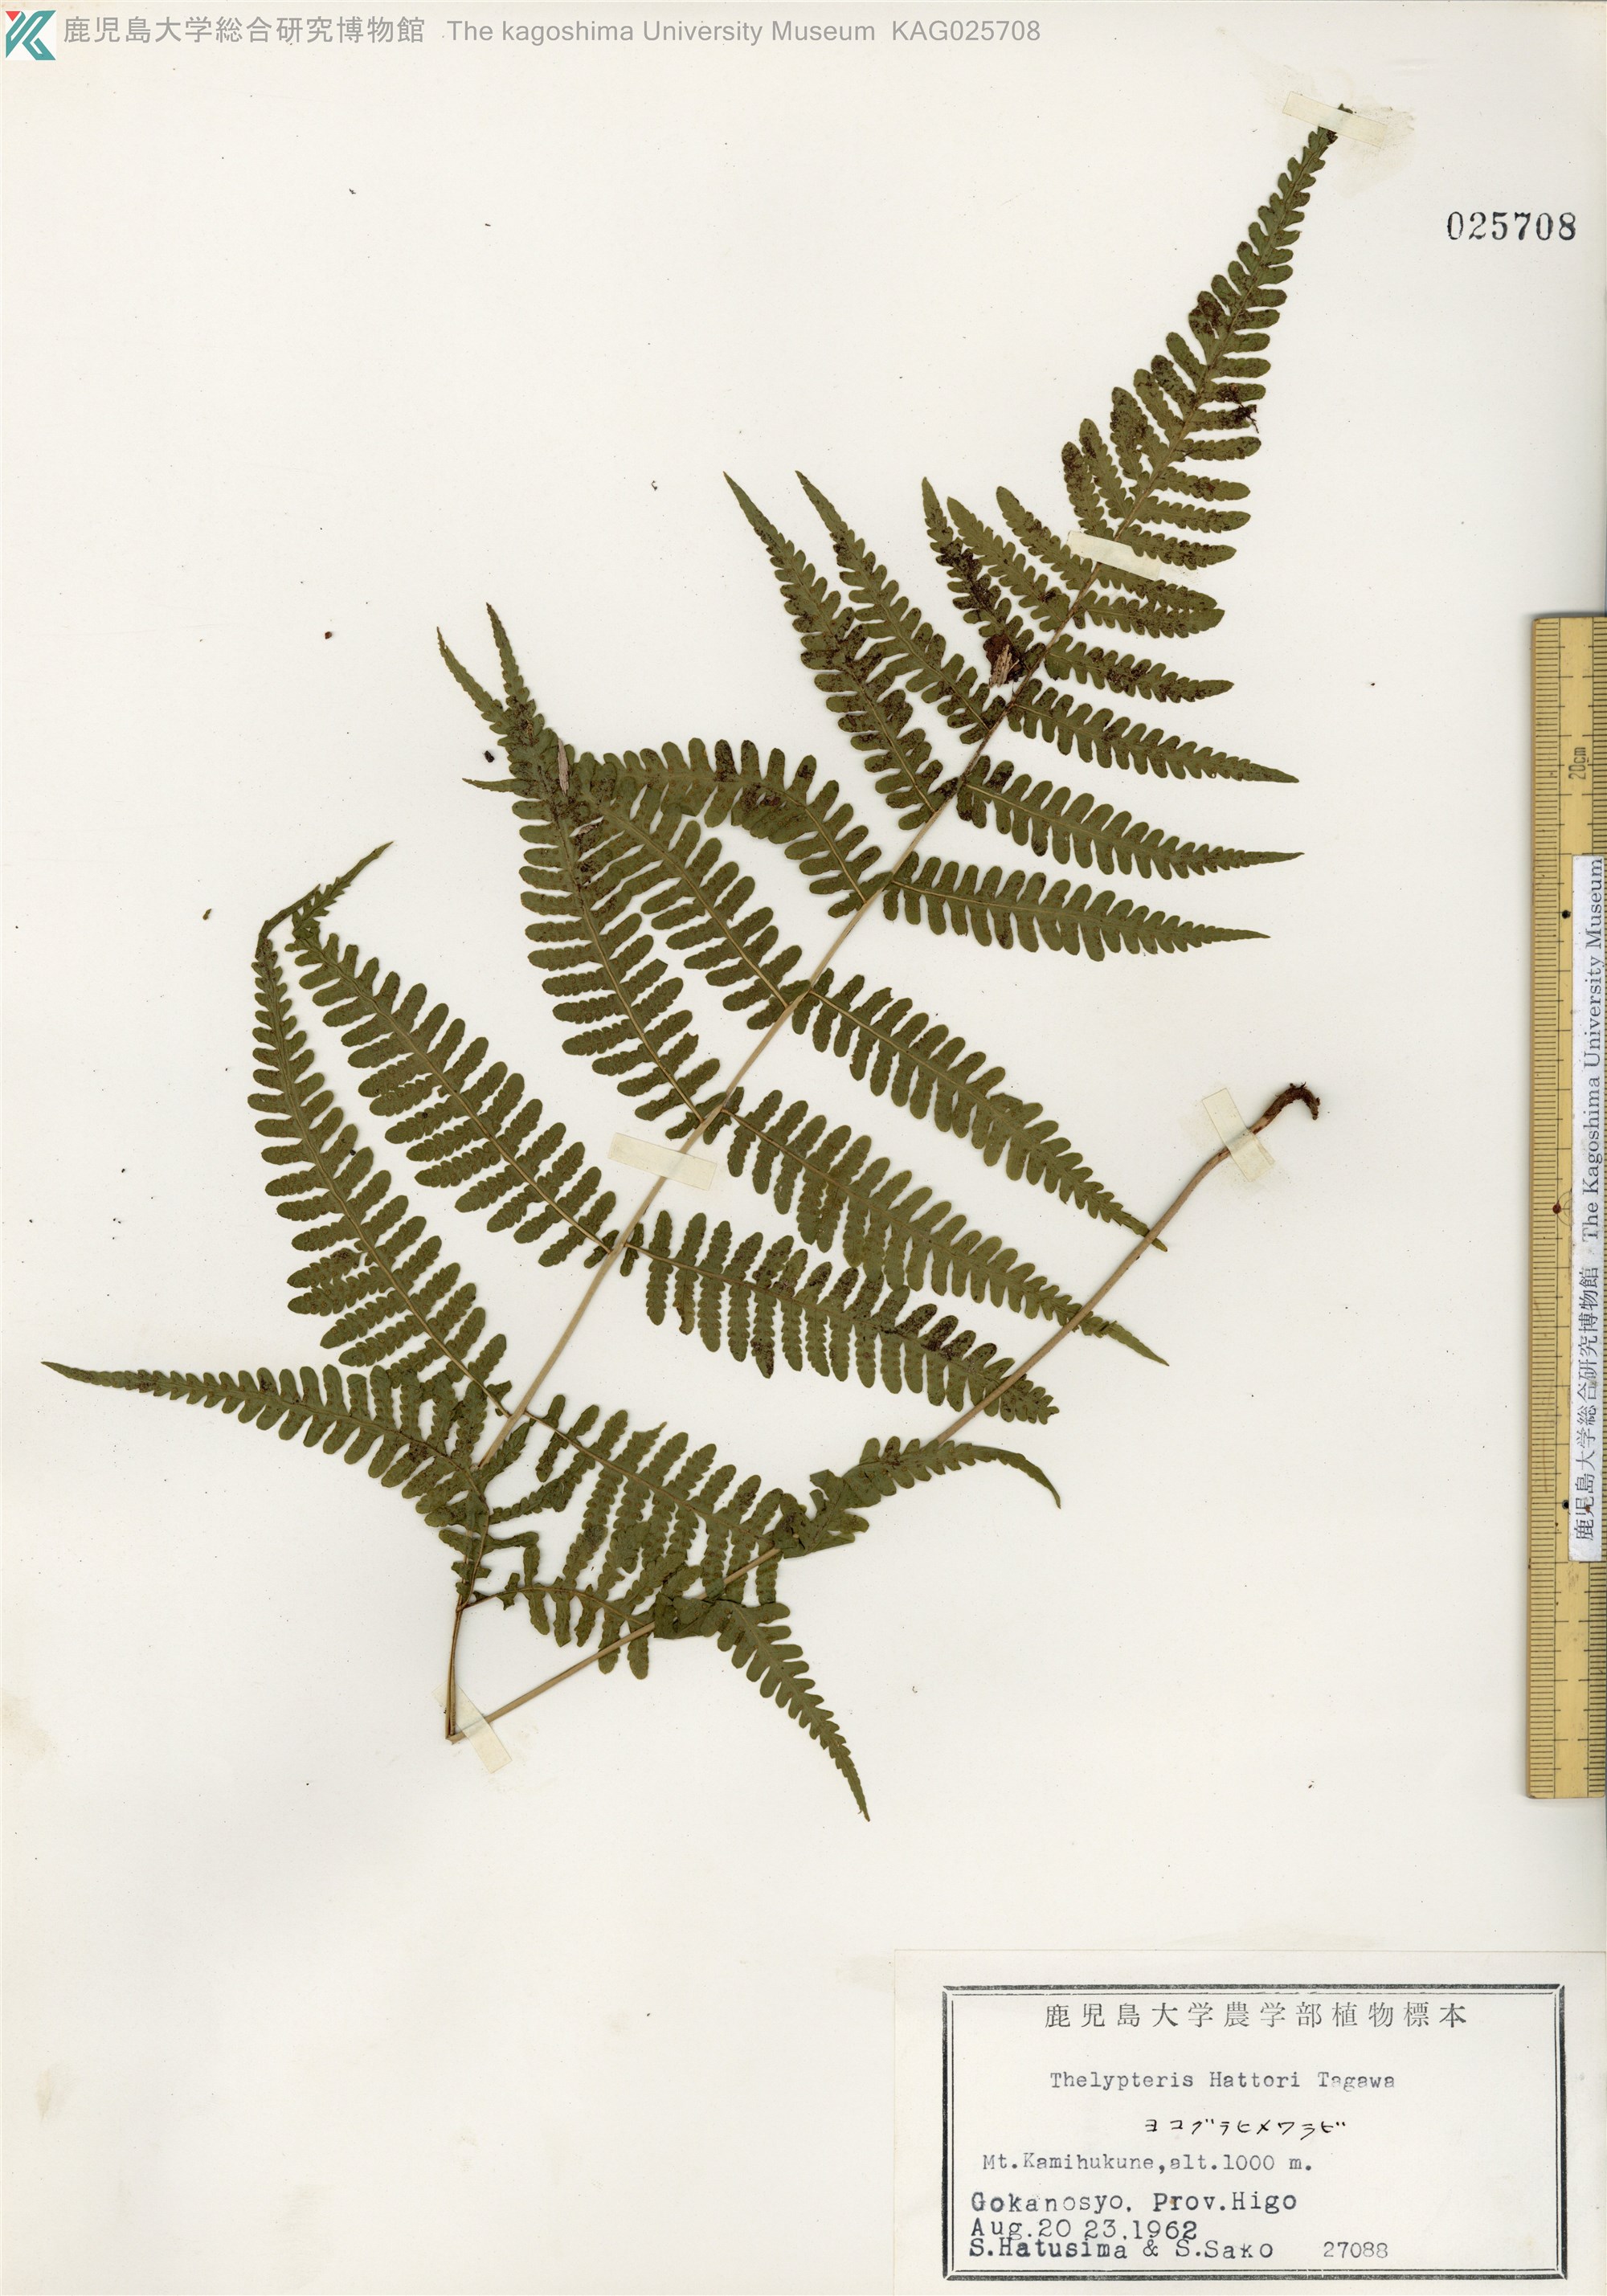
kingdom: Plantae
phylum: Tracheophyta
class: Polypodiopsida
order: Polypodiales
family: Thelypteridaceae
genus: Metathelypteris
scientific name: Metathelypteris hattori
